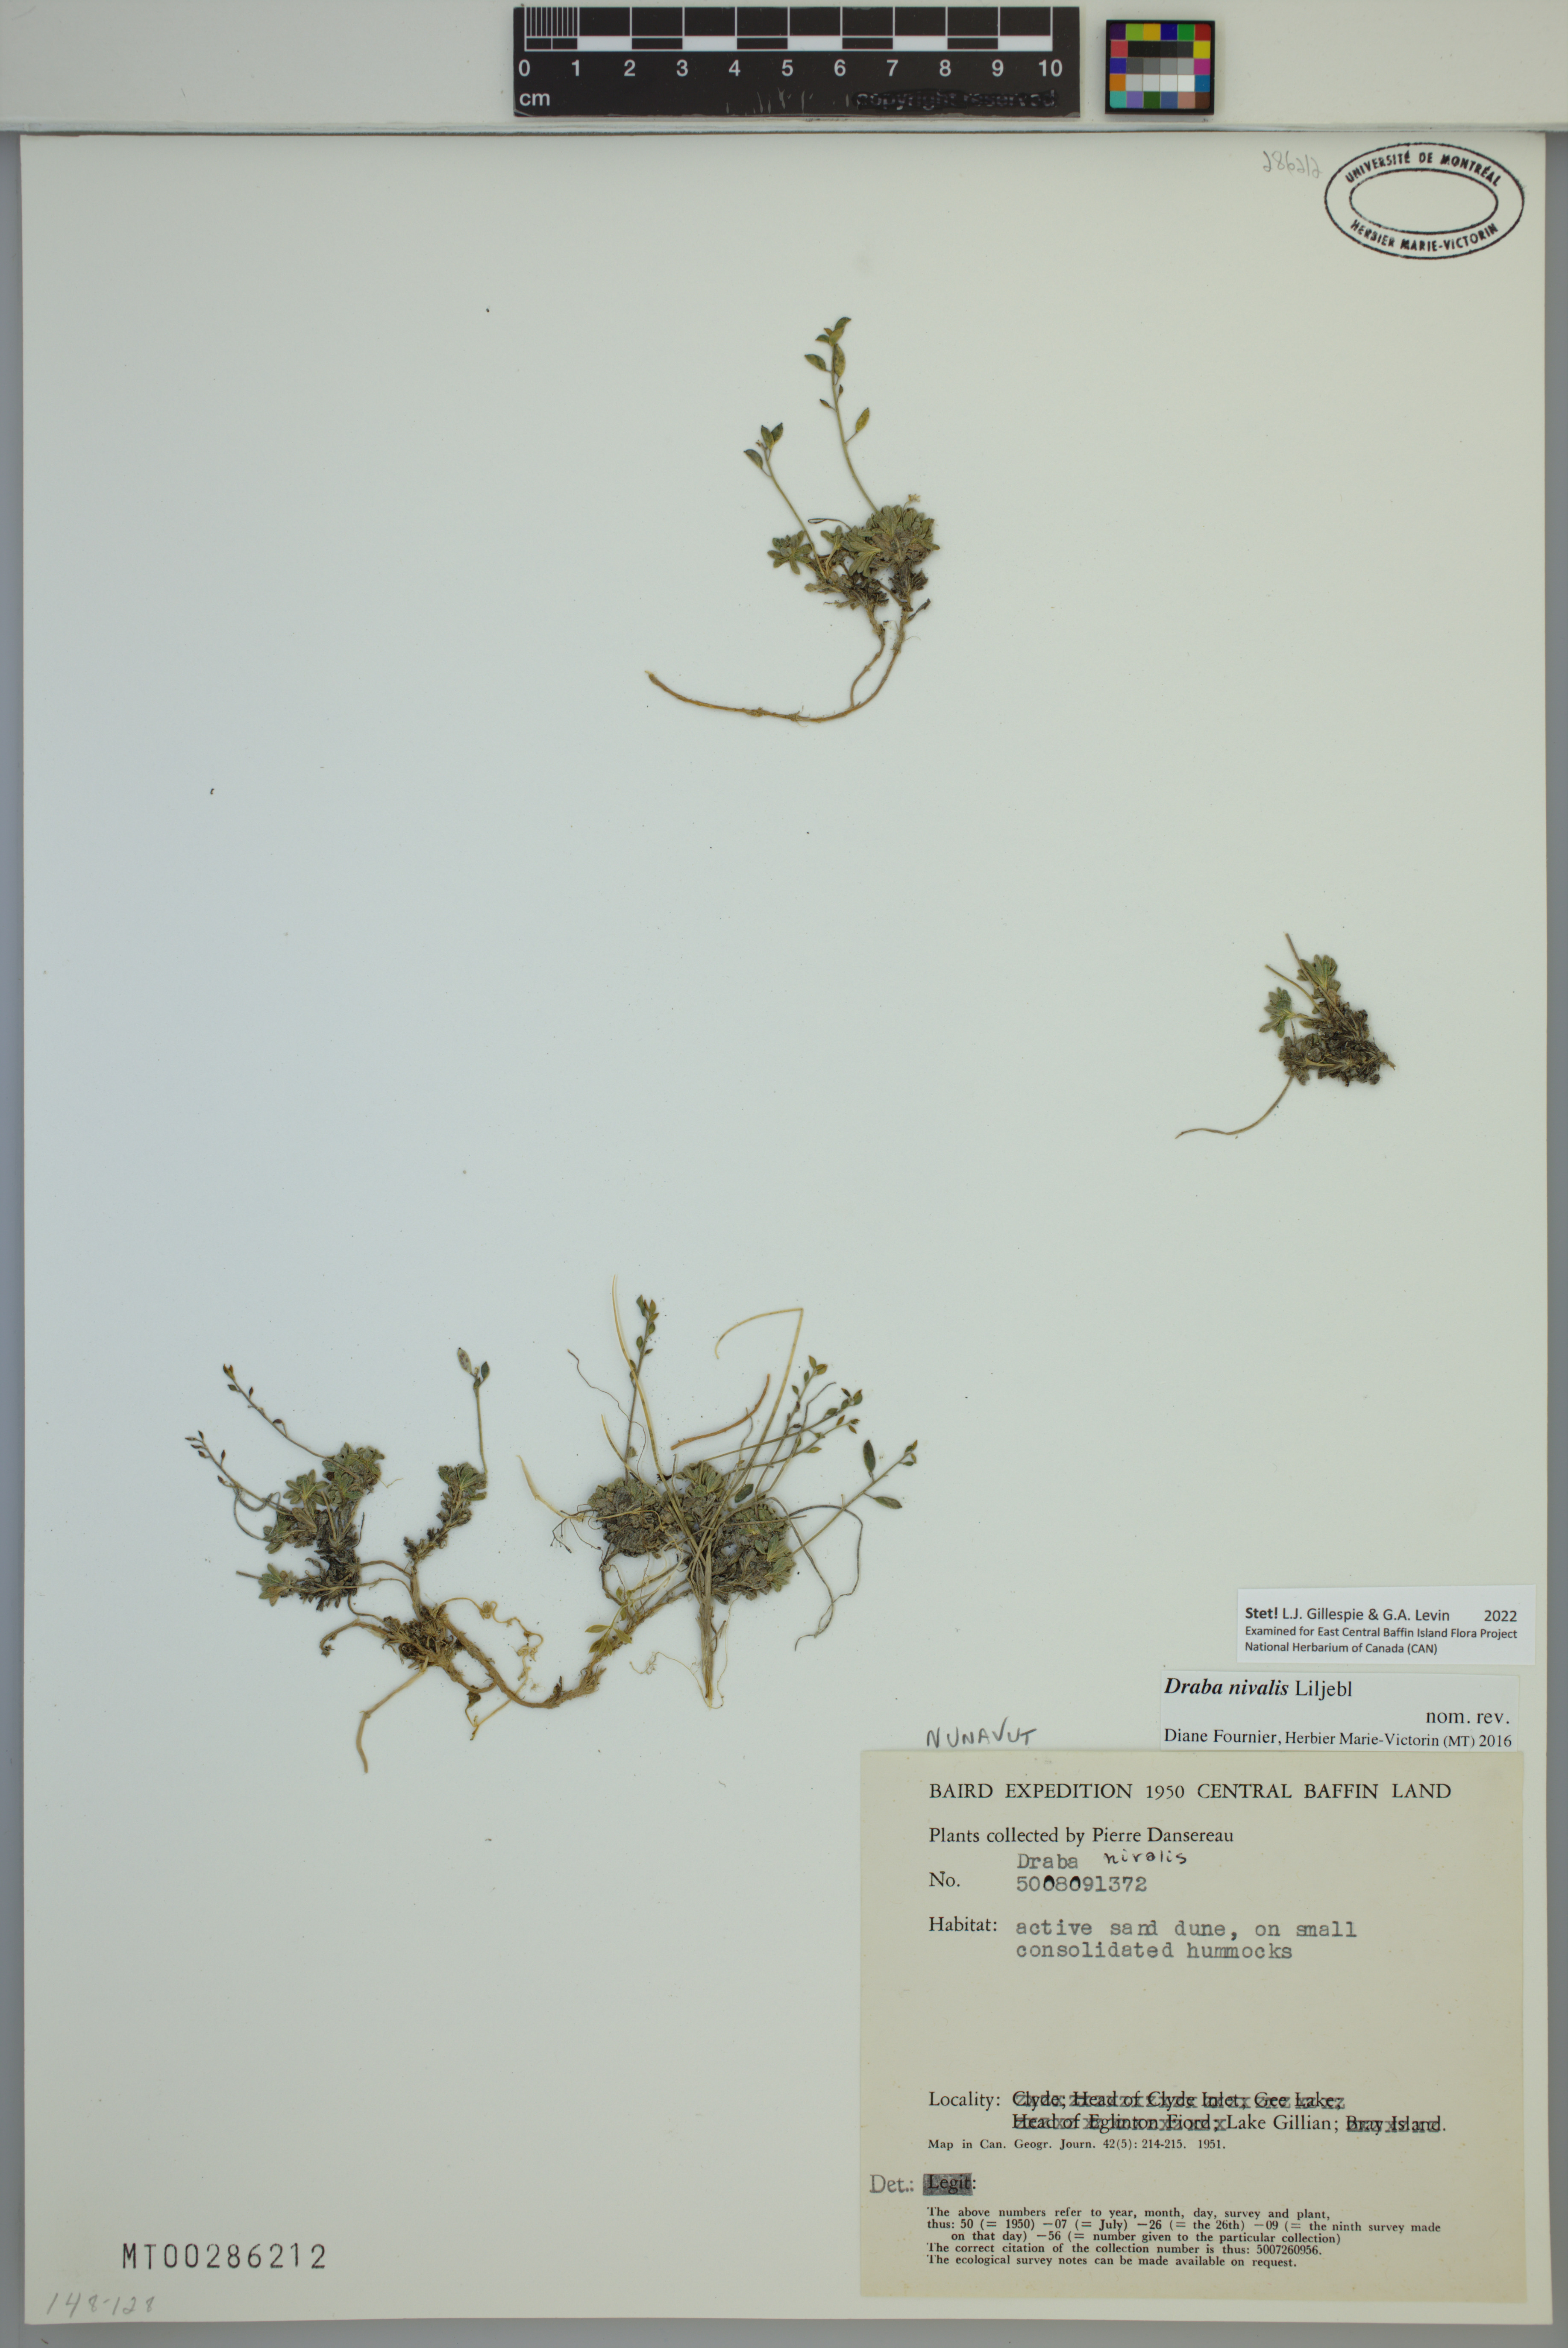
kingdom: Plantae
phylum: Tracheophyta
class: Magnoliopsida
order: Brassicales
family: Brassicaceae
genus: Draba
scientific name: Draba nivalis
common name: Snow draba
